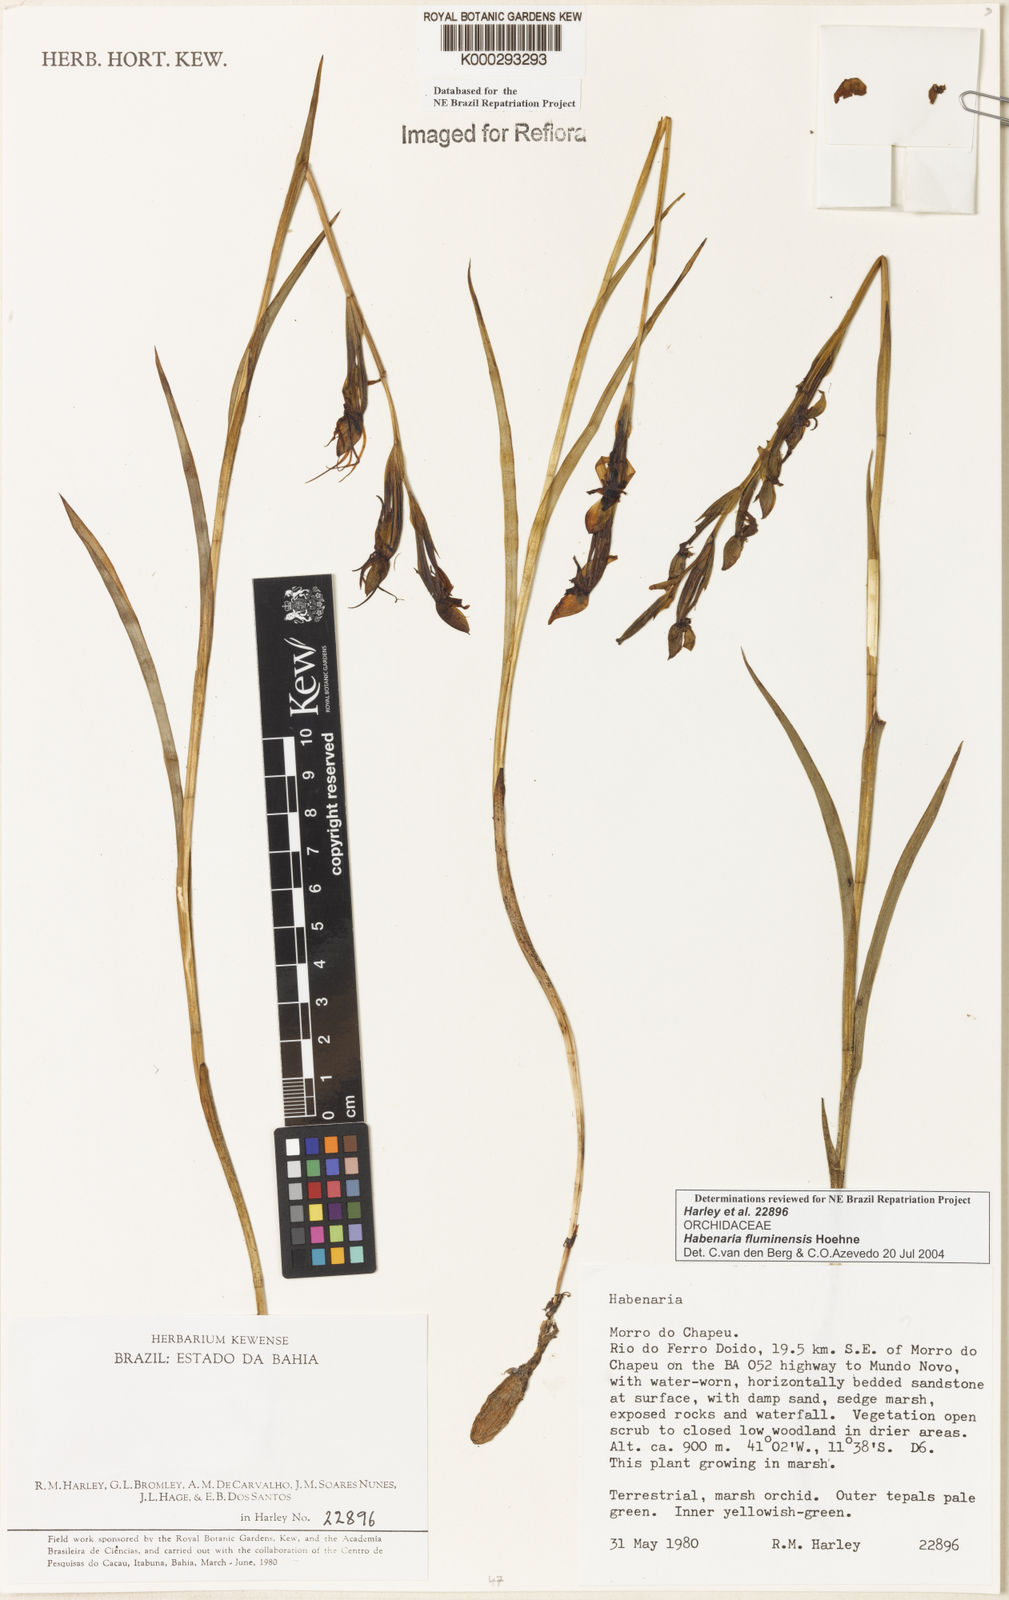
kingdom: Plantae
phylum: Tracheophyta
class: Liliopsida
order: Asparagales
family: Orchidaceae
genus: Habenaria
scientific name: Habenaria fluminensis
